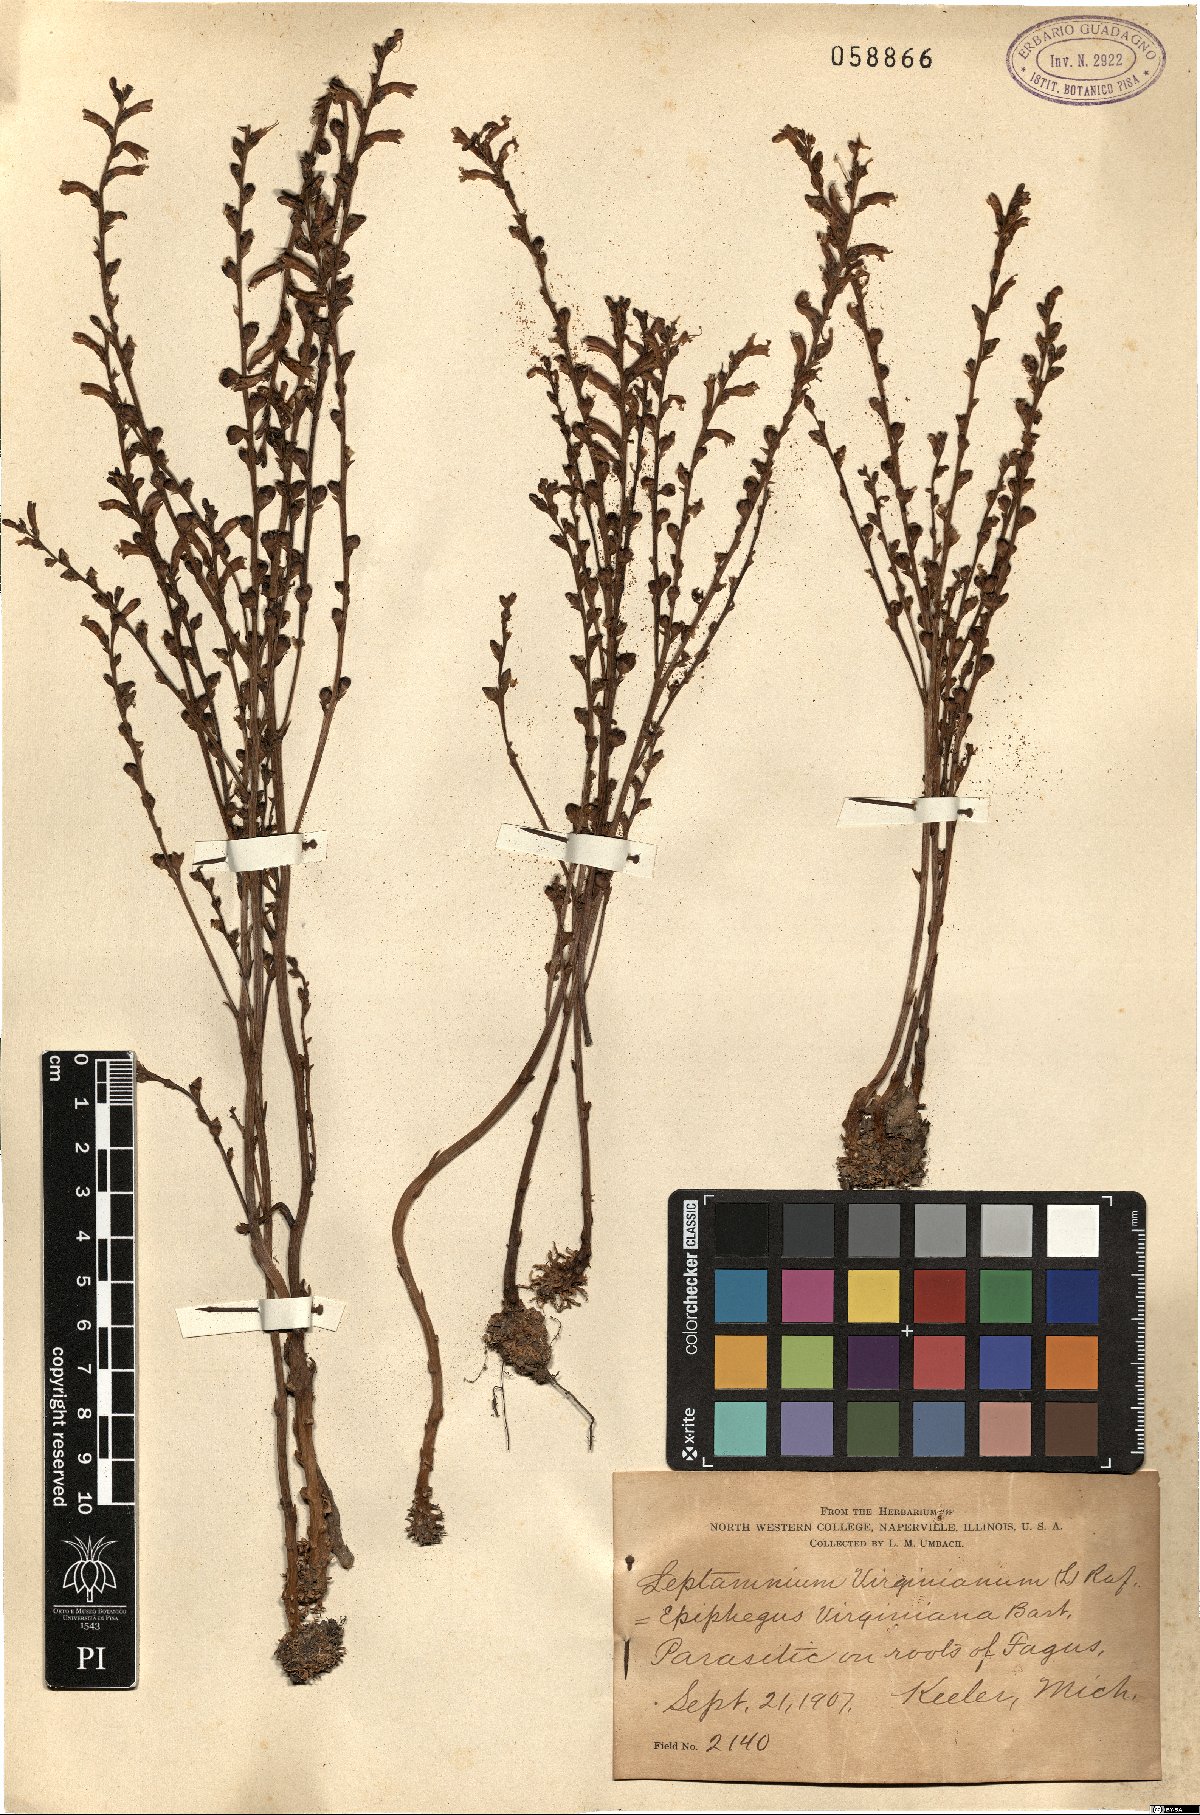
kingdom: Plantae
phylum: Tracheophyta
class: Magnoliopsida
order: Lamiales
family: Orobanchaceae
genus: Epifagus
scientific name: Epifagus virginiana
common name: Beechdrops
